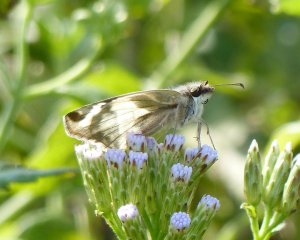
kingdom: Animalia
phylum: Arthropoda
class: Insecta
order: Lepidoptera
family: Hesperiidae
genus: Heliopetes
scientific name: Heliopetes laviana
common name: Laviana White-Skipper
